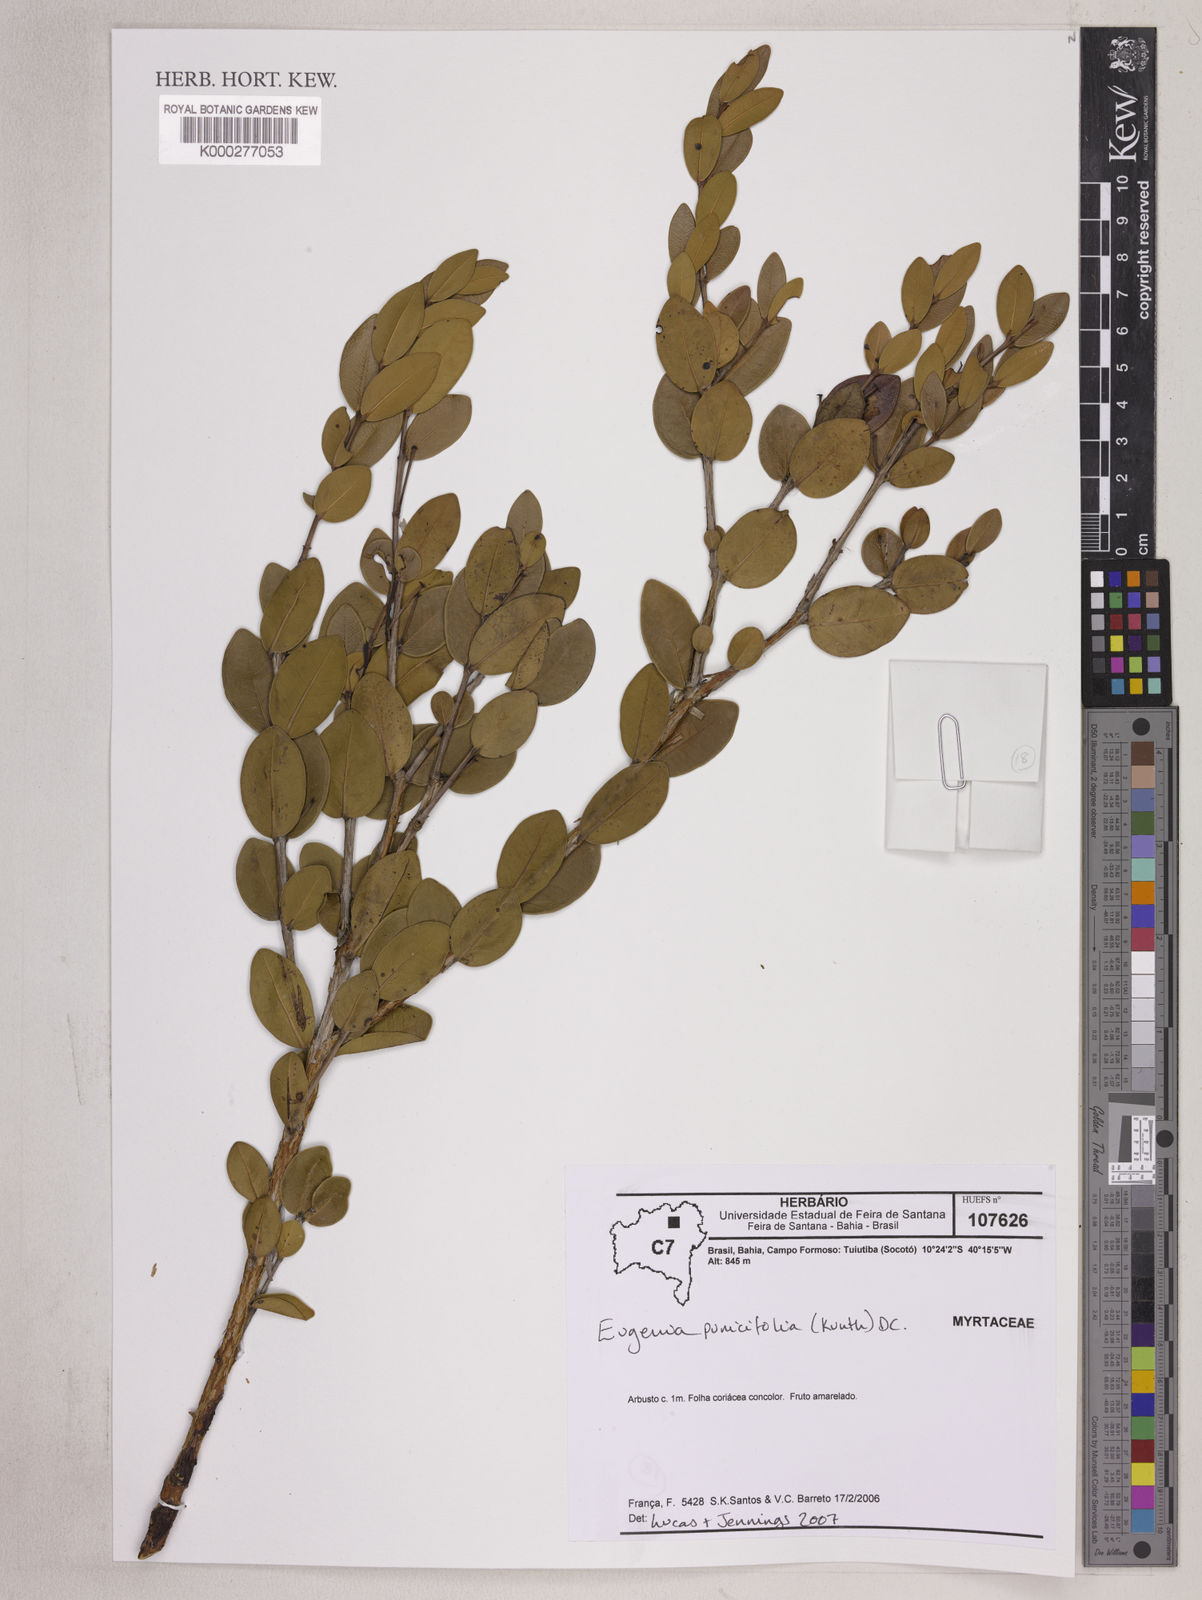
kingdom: Plantae
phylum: Tracheophyta
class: Magnoliopsida
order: Myrtales
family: Myrtaceae
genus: Eugenia
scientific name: Eugenia punicifolia
